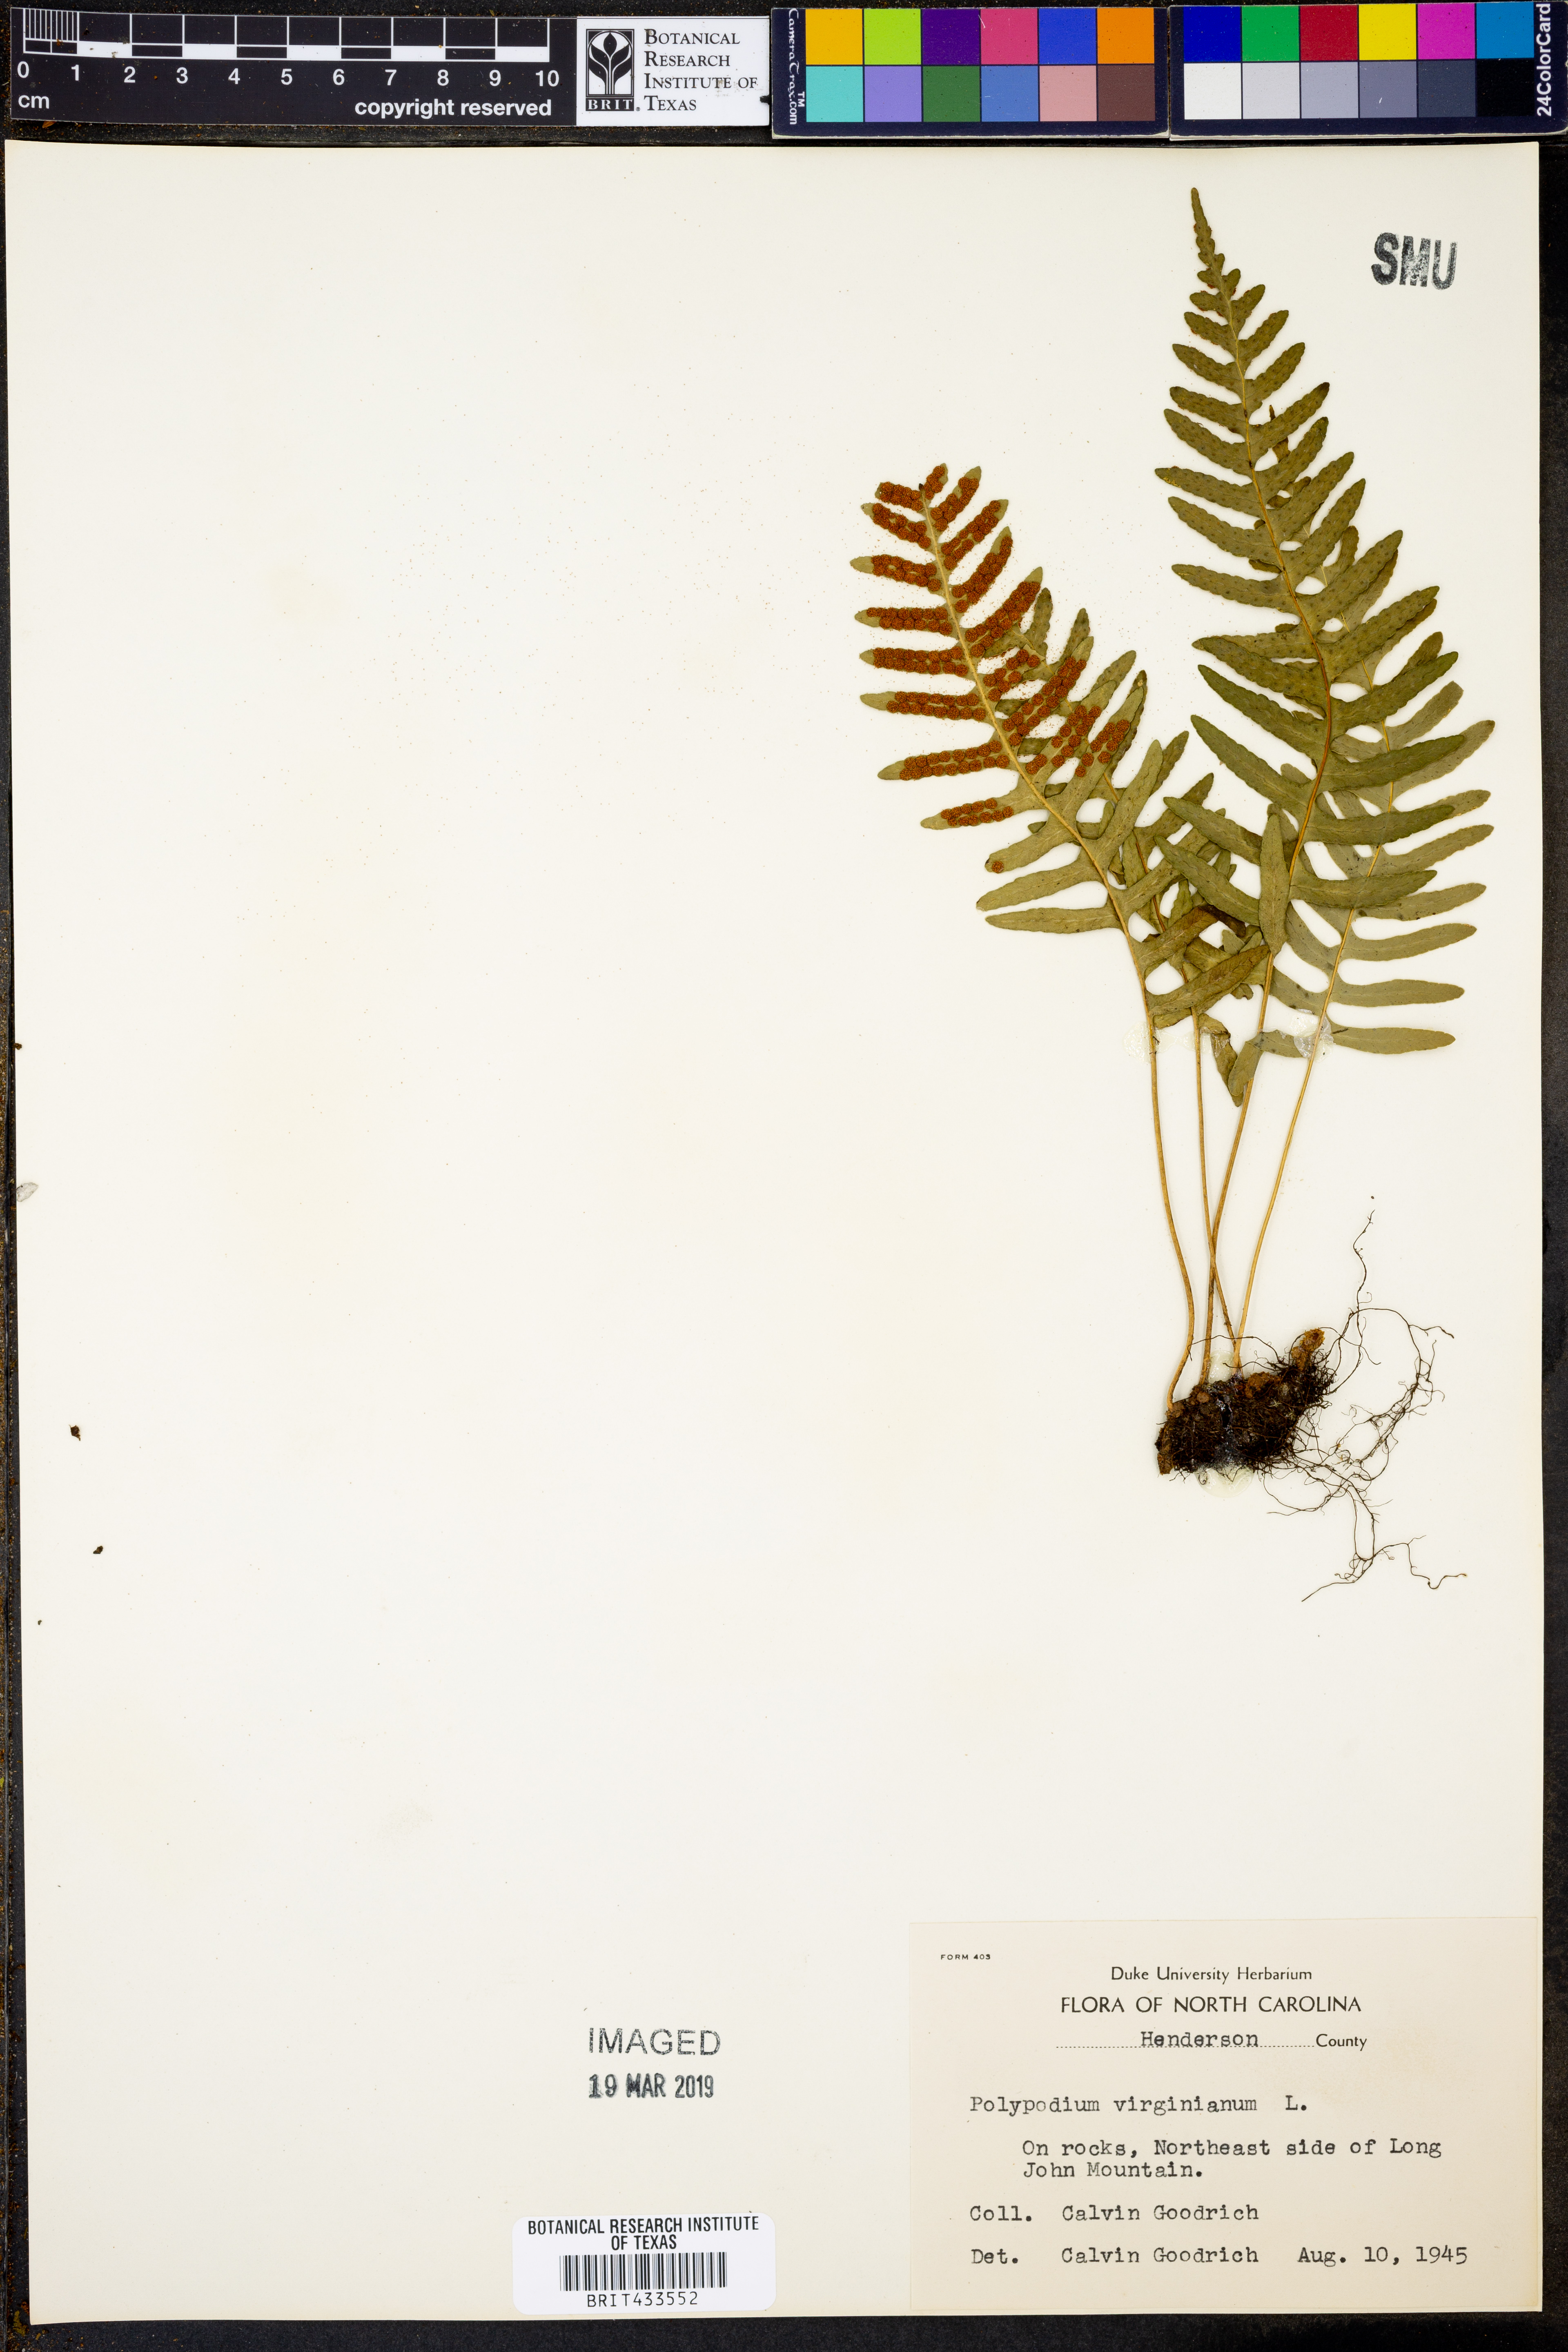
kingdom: Plantae
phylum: Tracheophyta
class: Polypodiopsida
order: Polypodiales
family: Polypodiaceae
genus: Polypodium
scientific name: Polypodium virginianum
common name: American wall fern
